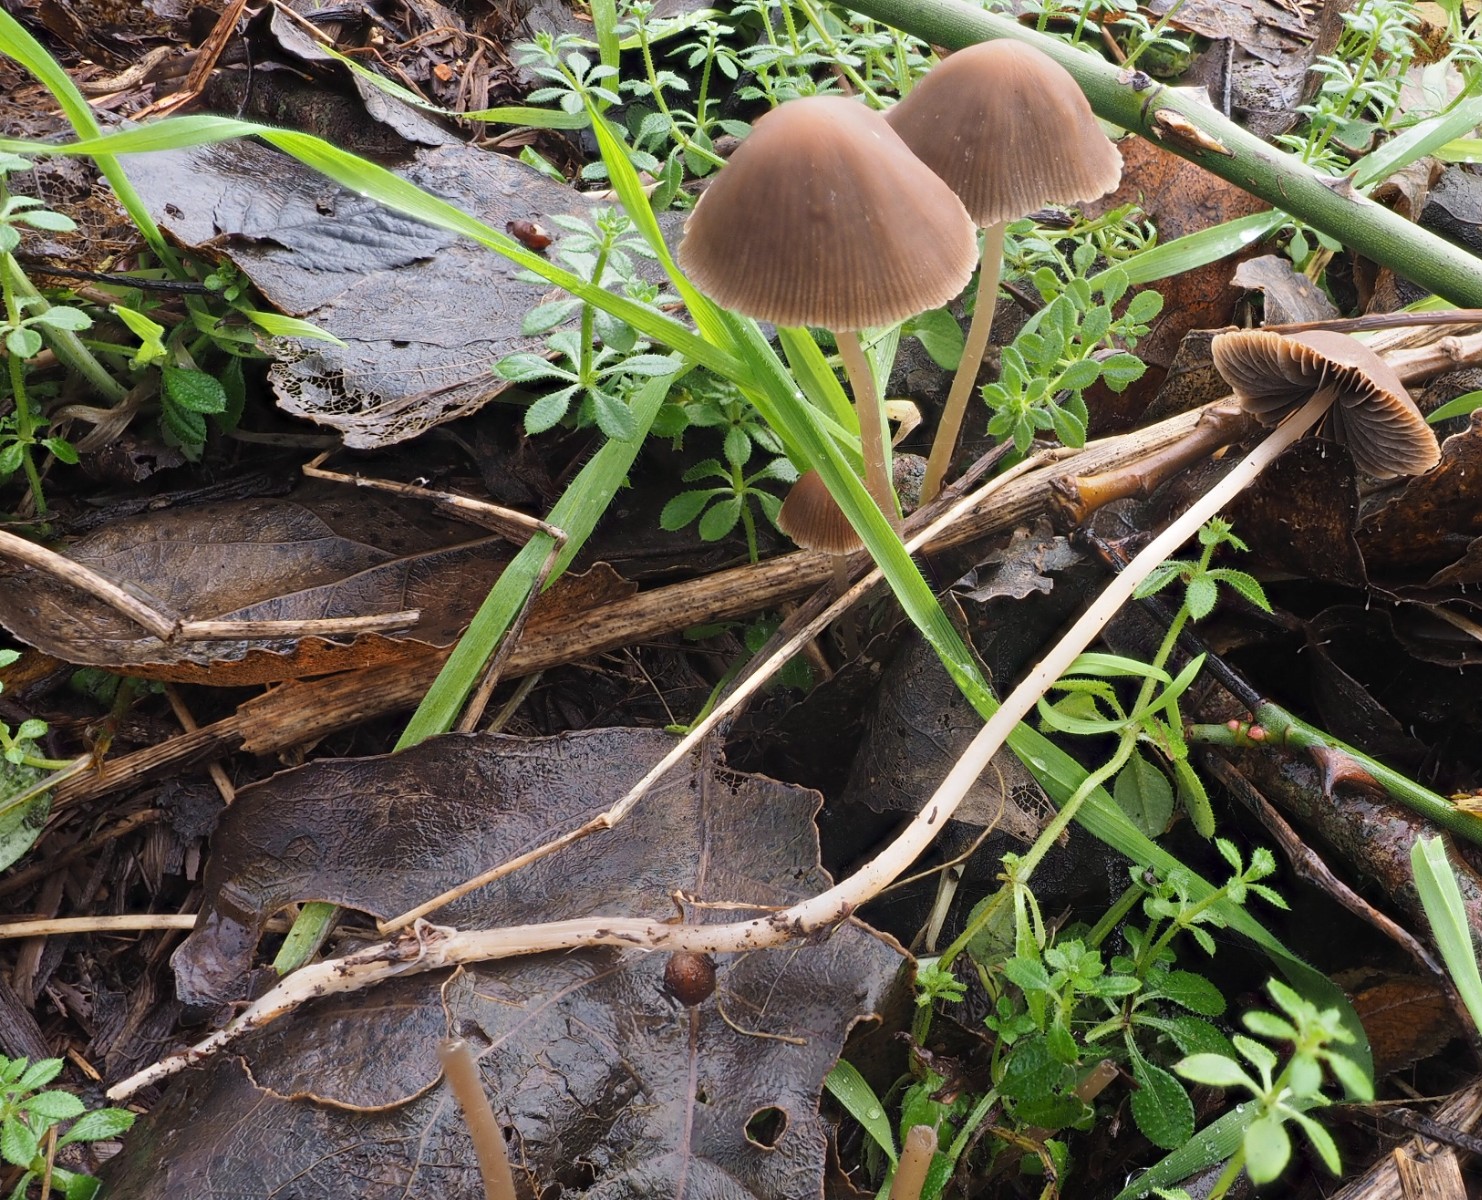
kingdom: Fungi
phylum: Basidiomycota
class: Agaricomycetes
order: Agaricales
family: Psathyrellaceae
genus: Psathyrella
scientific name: Psathyrella
